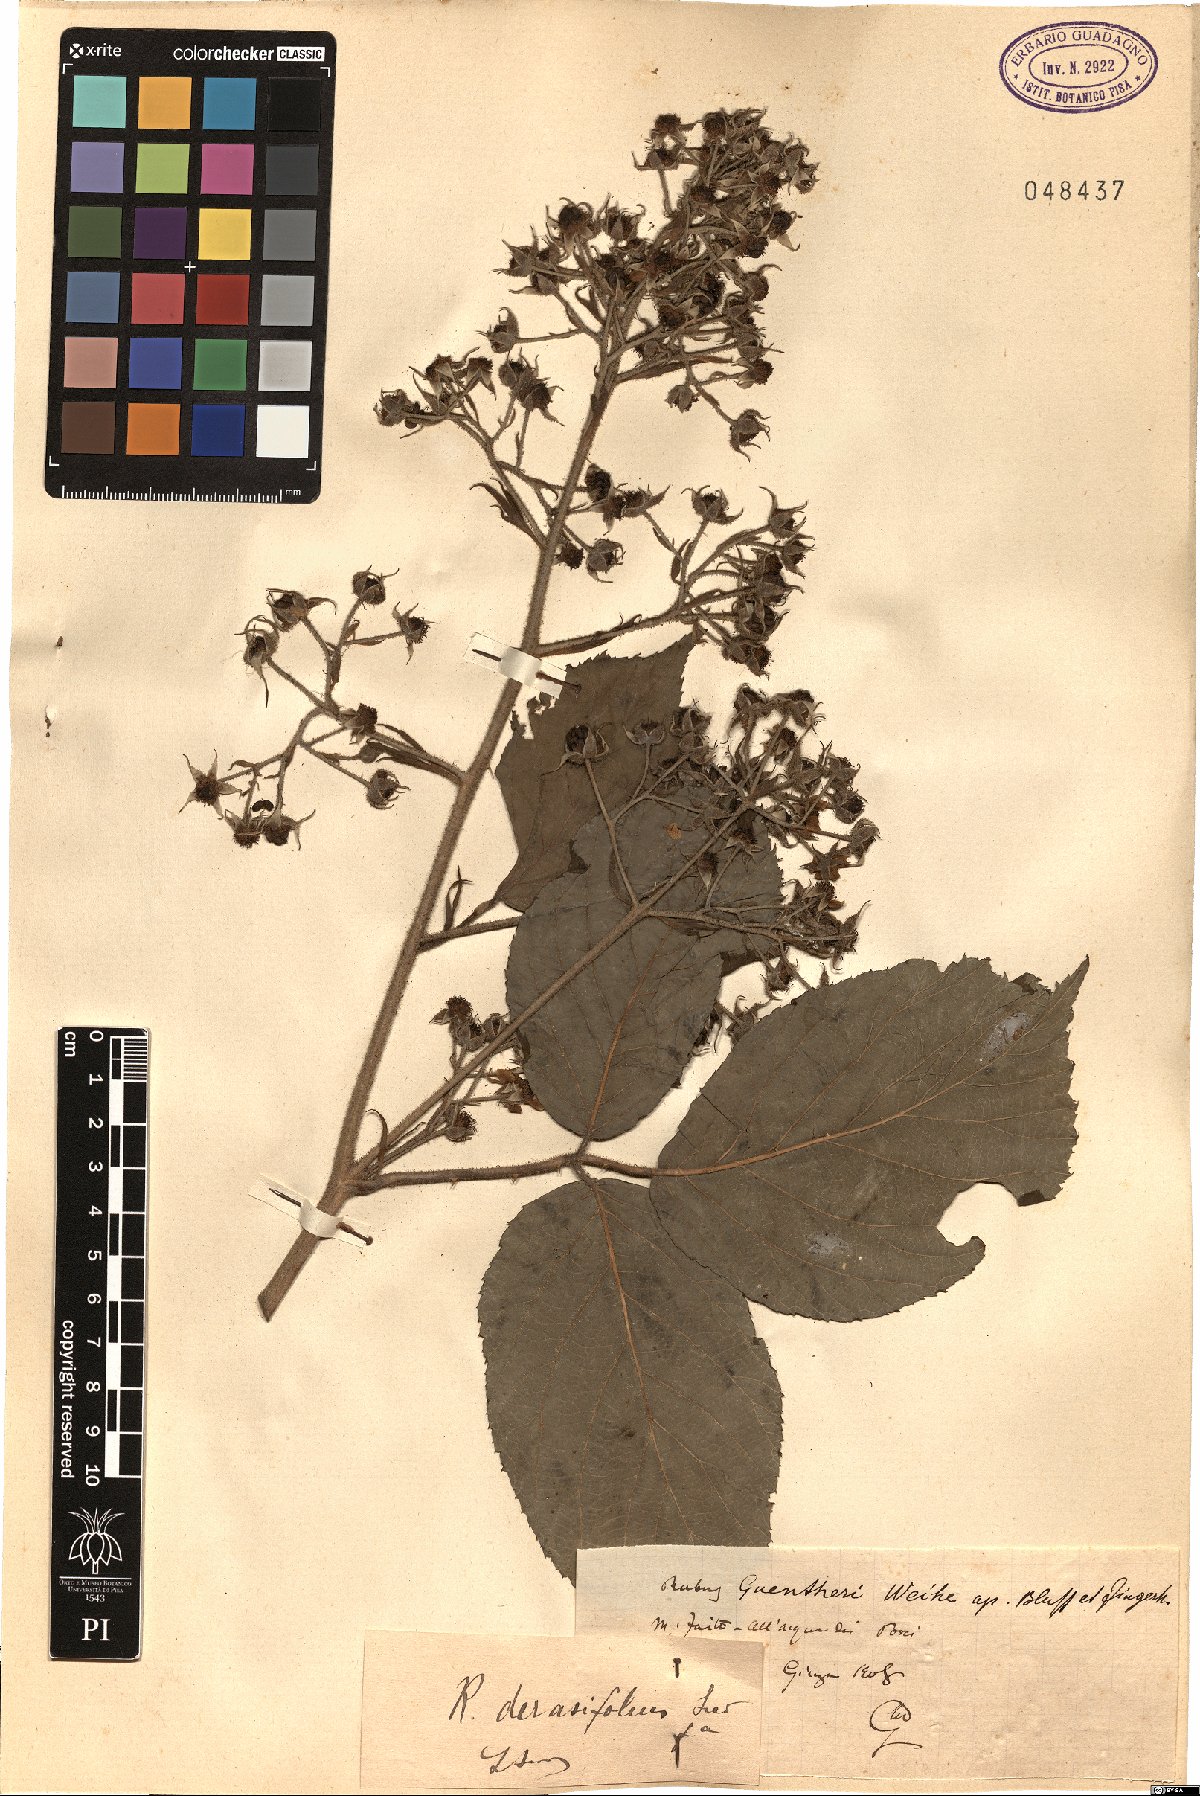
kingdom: Plantae
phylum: Tracheophyta
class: Magnoliopsida
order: Rosales
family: Rosaceae
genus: Rubus
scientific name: Rubus derasifolius
